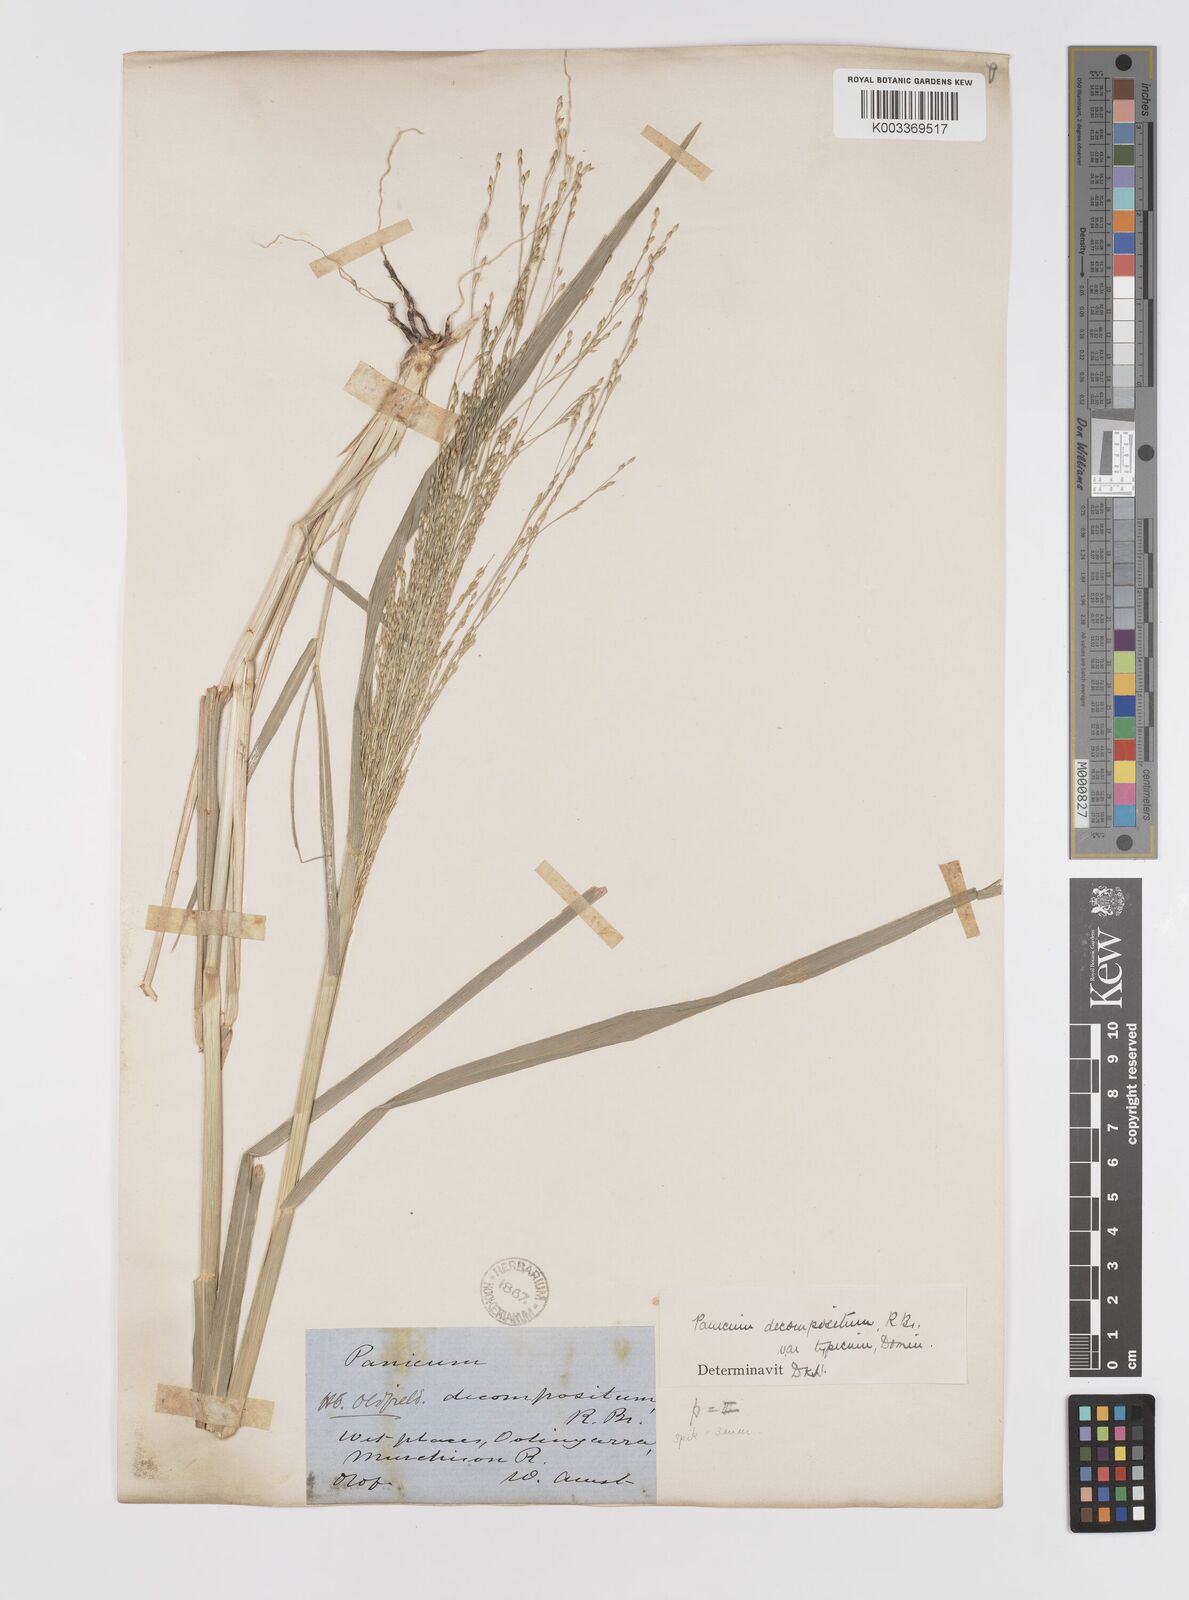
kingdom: Plantae
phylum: Tracheophyta
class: Liliopsida
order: Poales
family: Poaceae
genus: Panicum
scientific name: Panicum decompositum
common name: Australian millet
